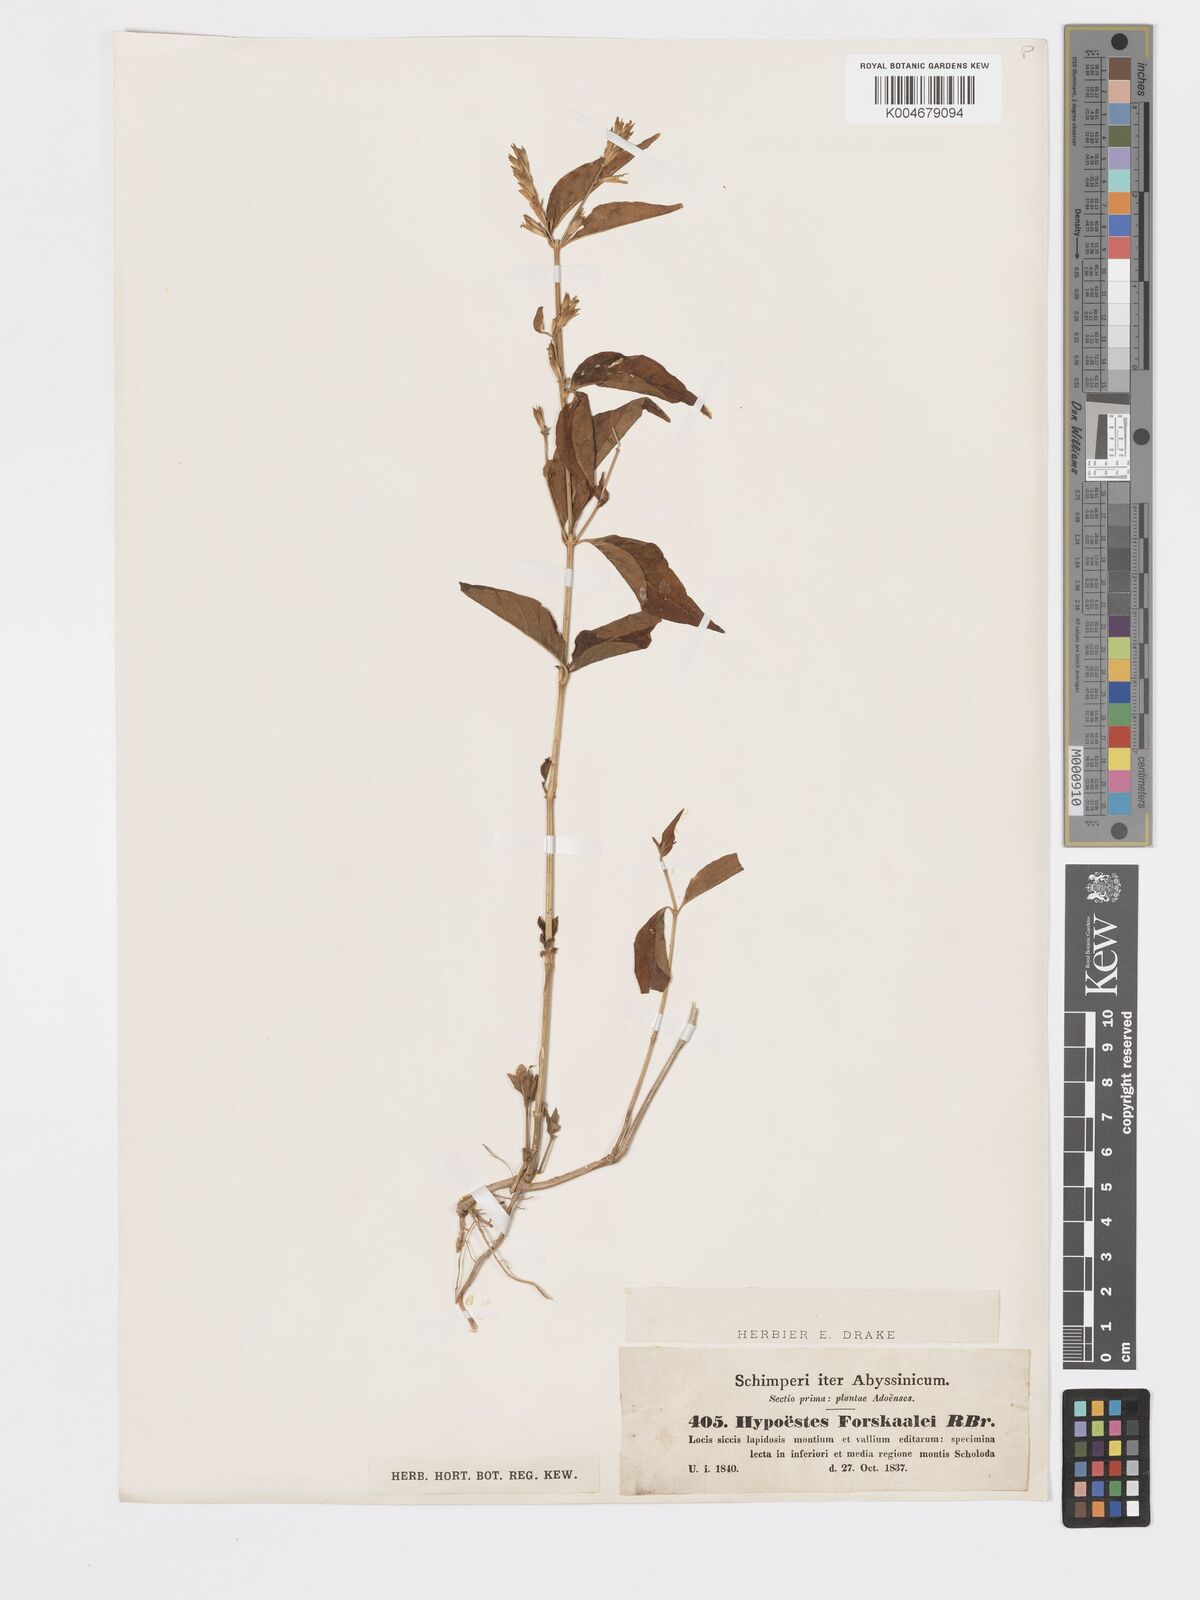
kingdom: Plantae
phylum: Tracheophyta
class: Magnoliopsida
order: Lamiales
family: Acanthaceae
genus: Hypoestes
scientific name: Hypoestes forskaolii
